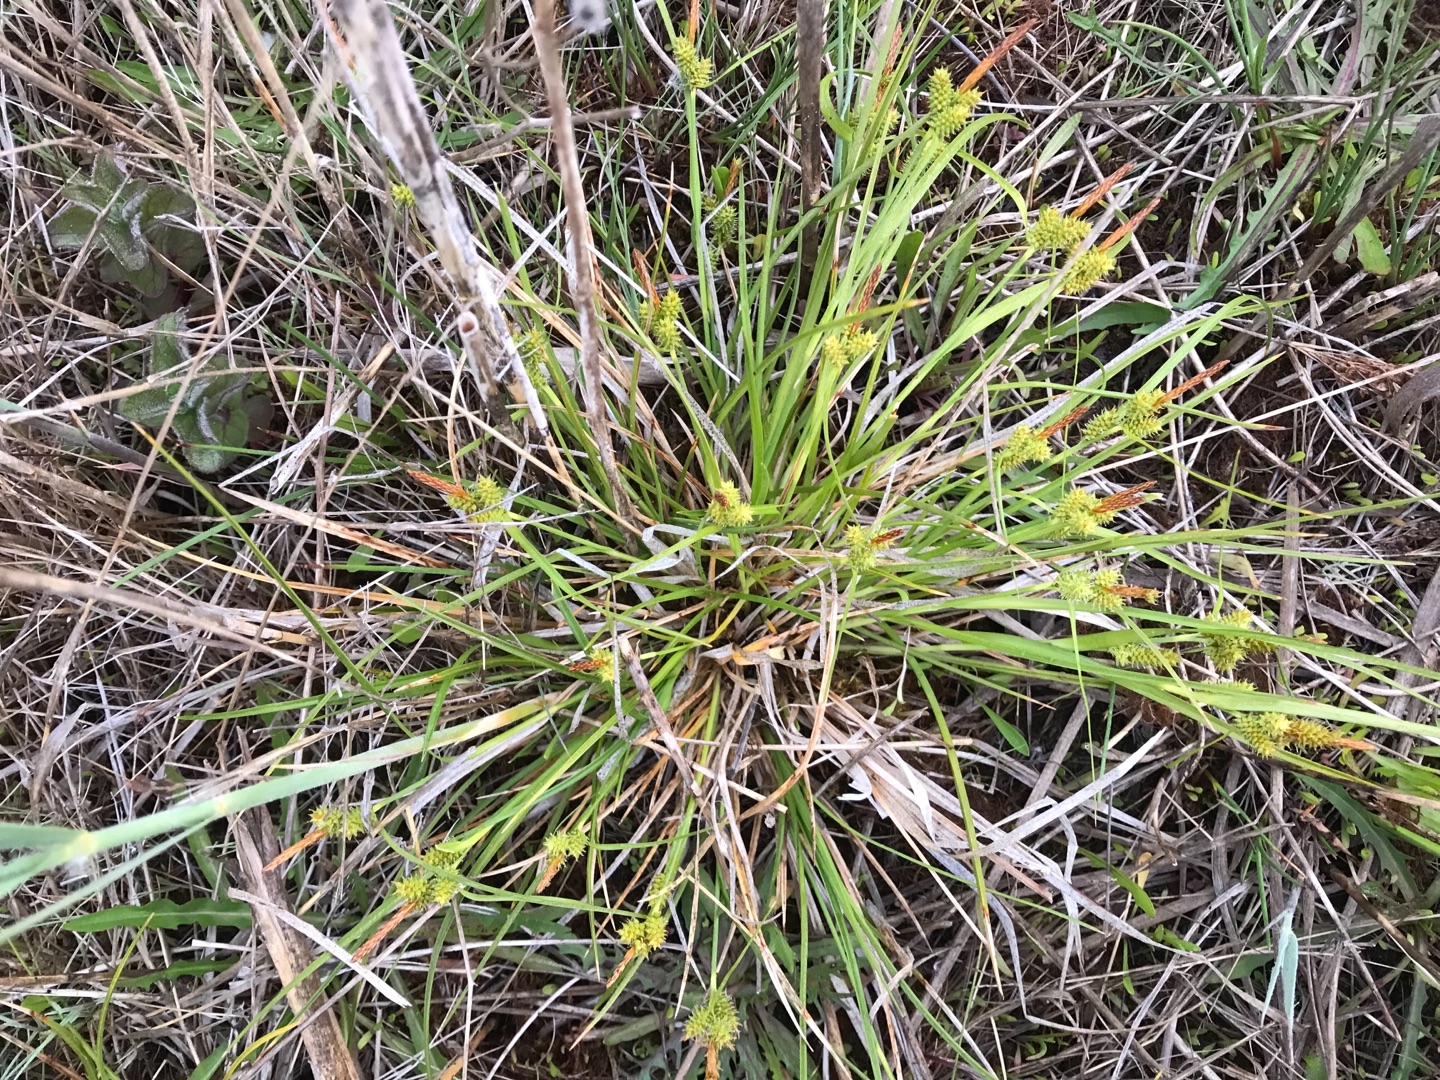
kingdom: Plantae
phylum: Tracheophyta
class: Liliopsida
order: Poales
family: Cyperaceae
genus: Carex
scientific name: Carex oederi
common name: Høst-star
